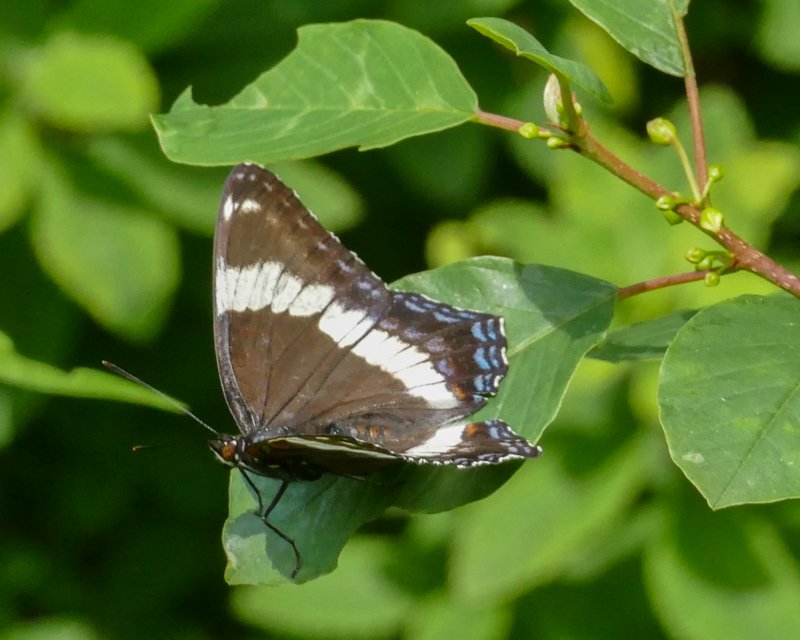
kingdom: Animalia
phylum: Arthropoda
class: Insecta
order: Lepidoptera
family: Nymphalidae
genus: Limenitis
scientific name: Limenitis arthemis
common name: Red-spotted Admiral
